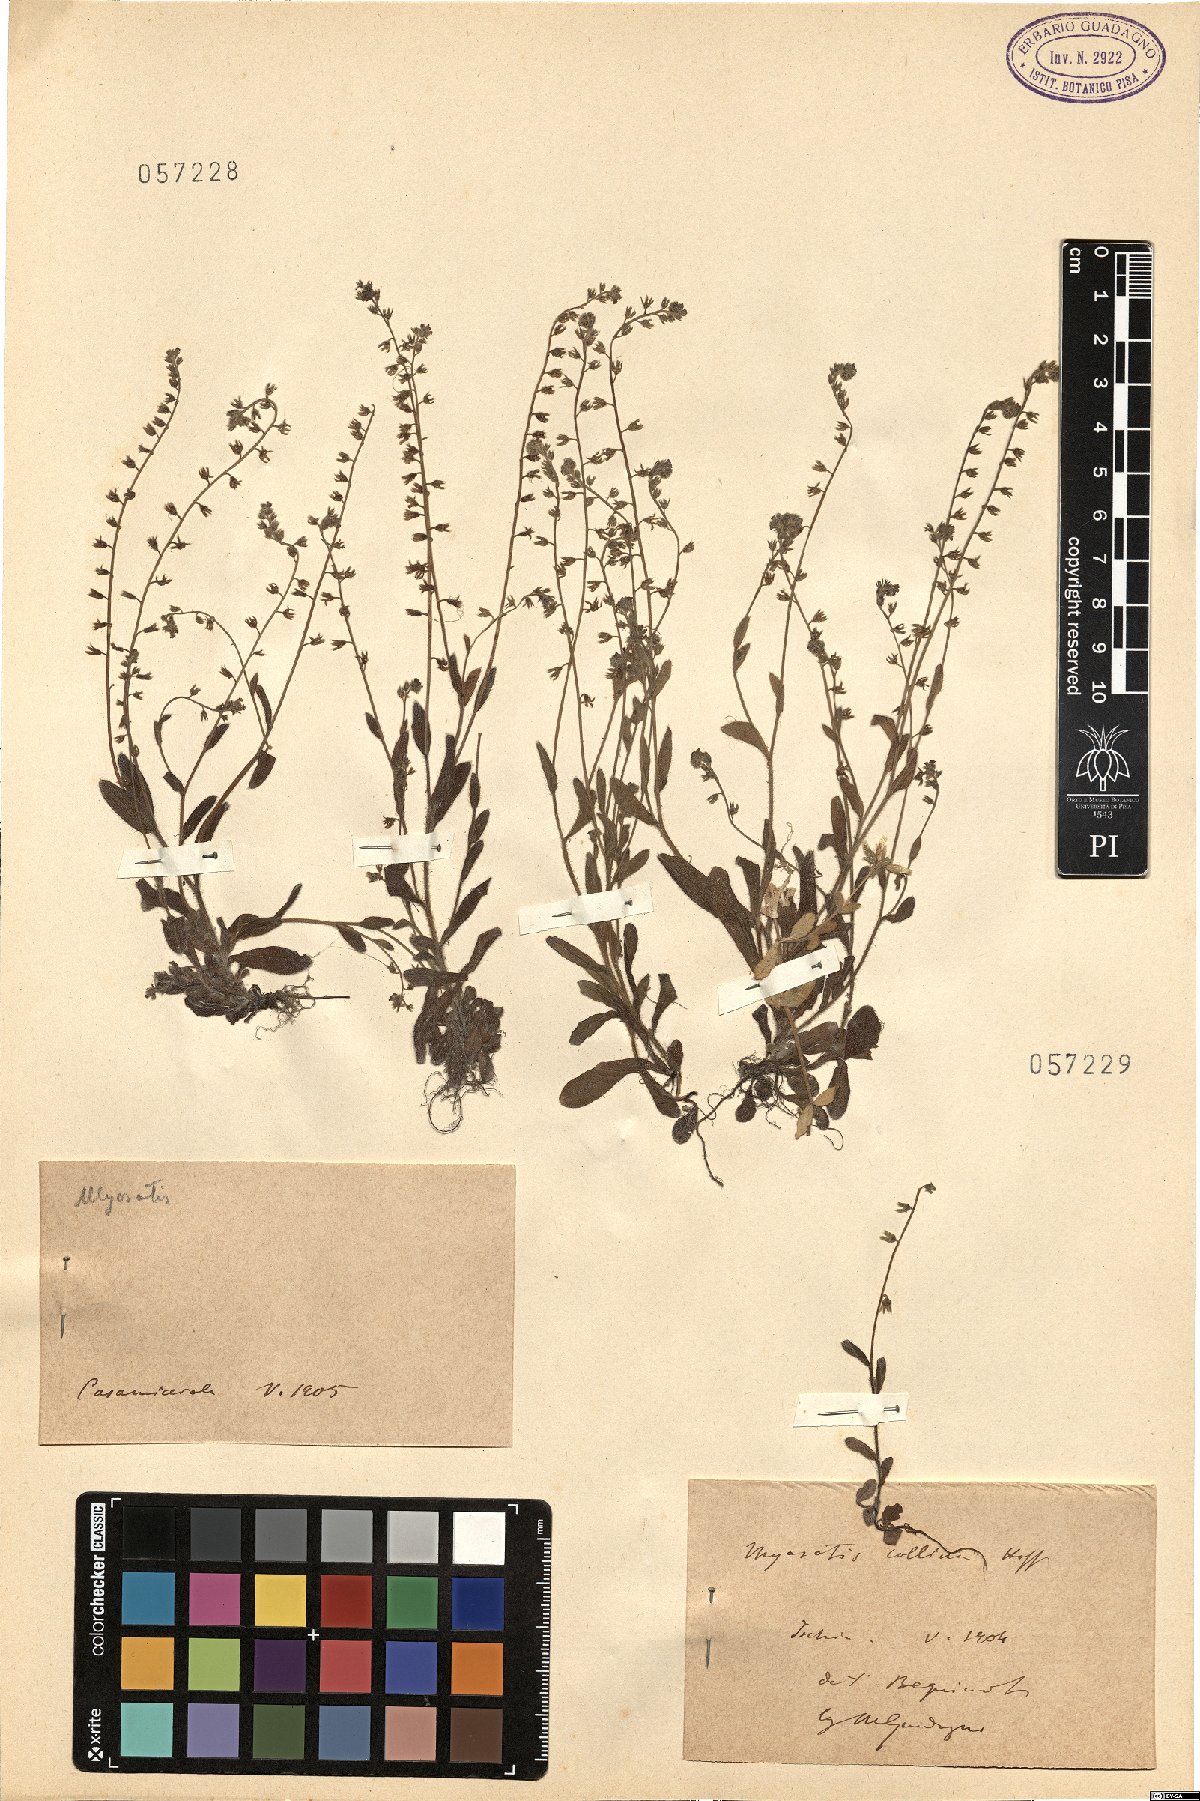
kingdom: Plantae
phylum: Tracheophyta
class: Magnoliopsida
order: Boraginales
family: Boraginaceae
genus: Myosotis
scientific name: Myosotis
